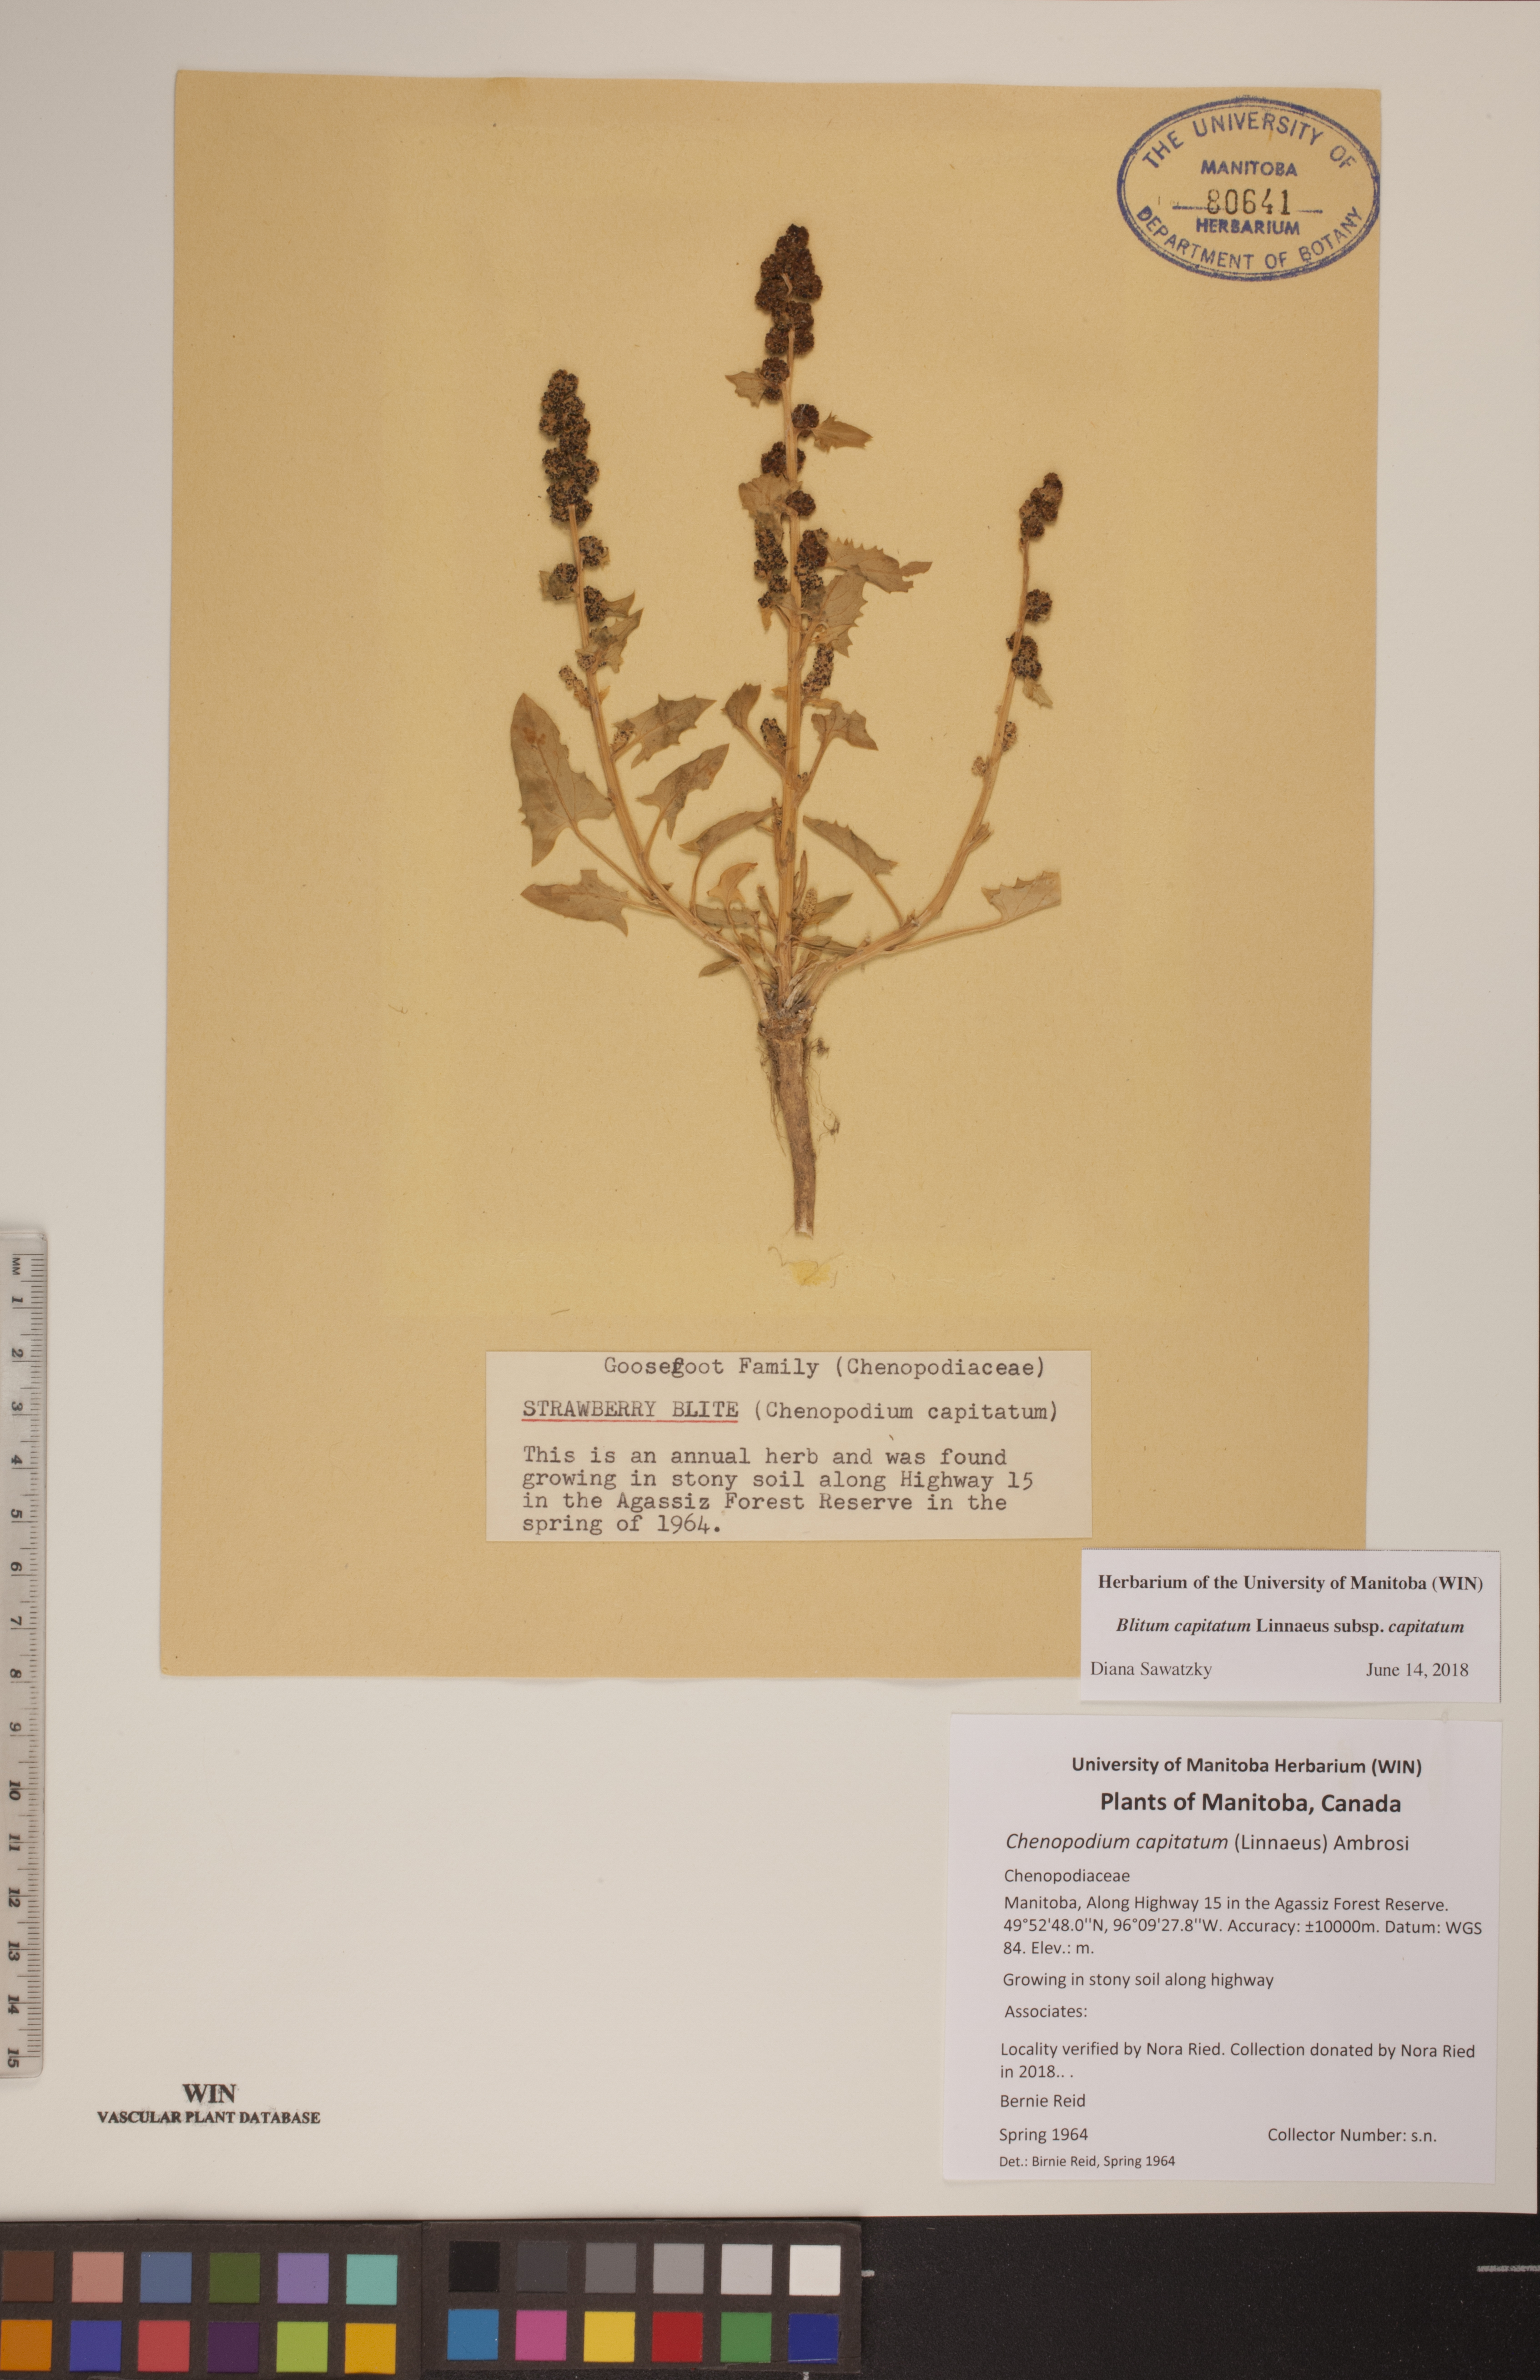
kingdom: Plantae
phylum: Tracheophyta
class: Magnoliopsida
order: Caryophyllales
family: Amaranthaceae
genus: Blitum
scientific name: Blitum capitatum
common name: Strawberry-blight
